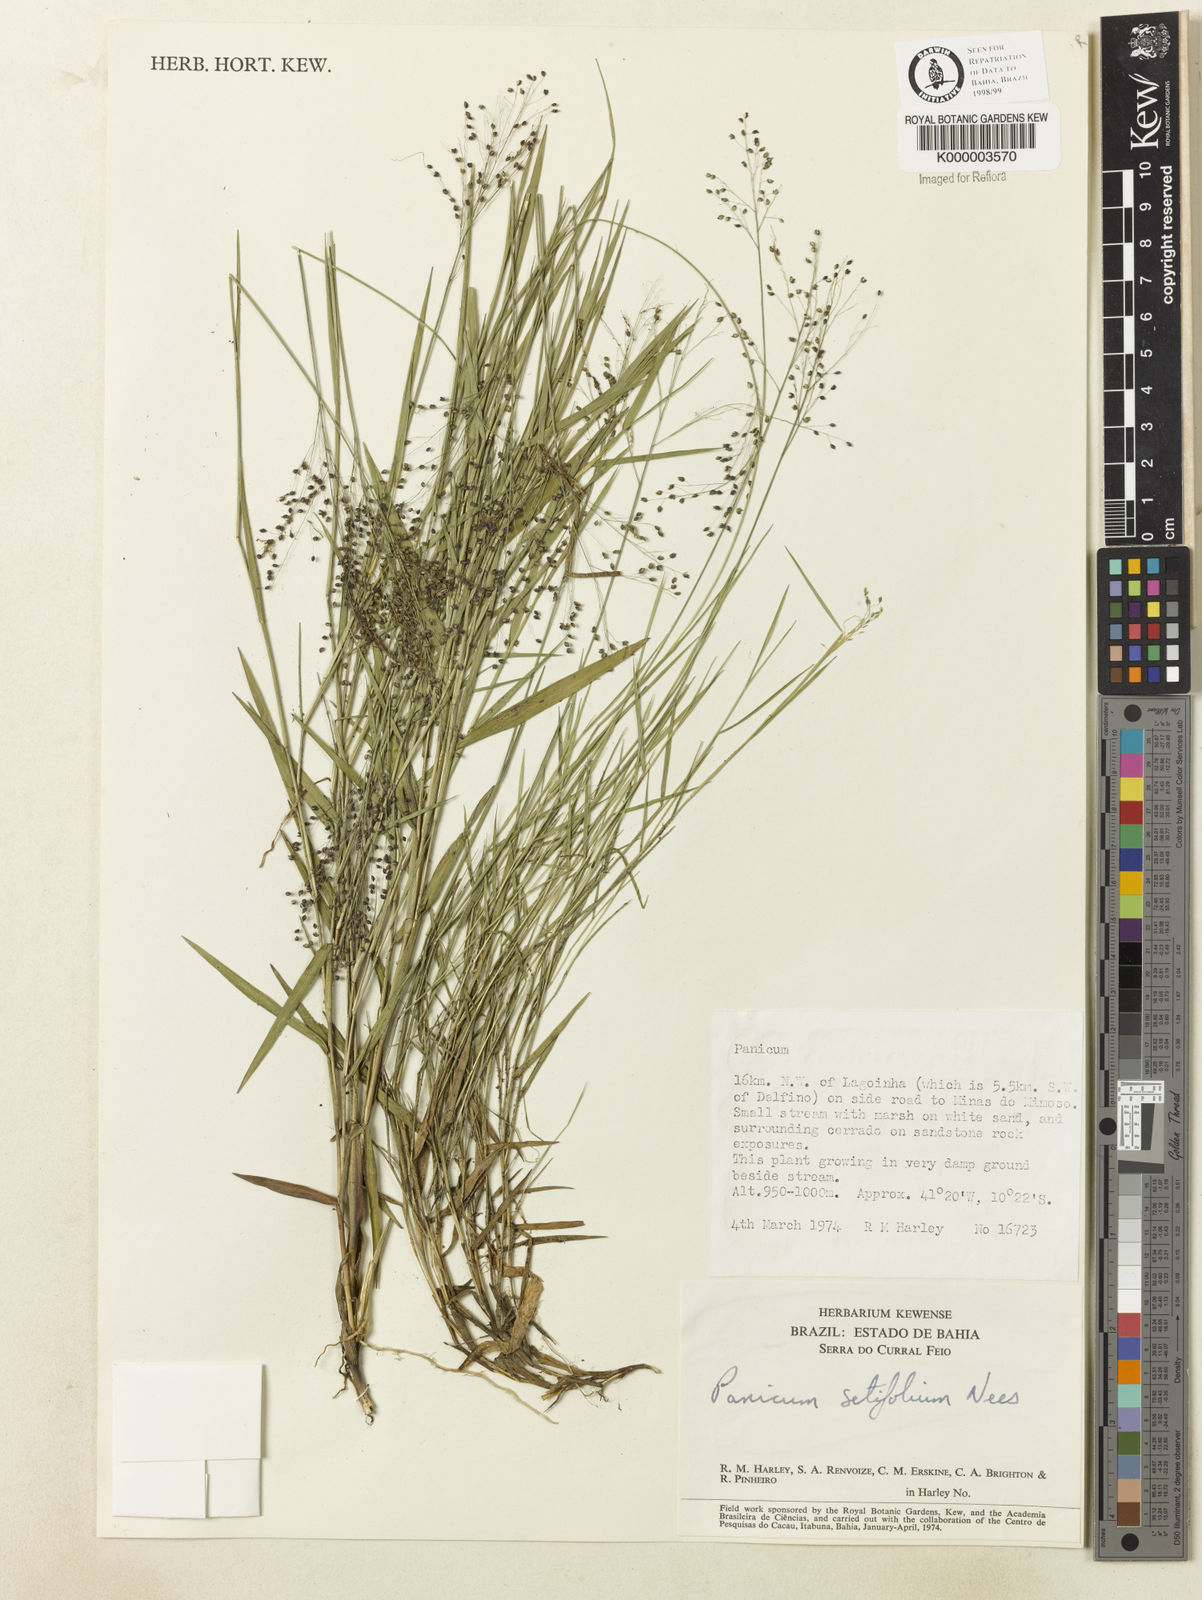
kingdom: Plantae
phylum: Tracheophyta
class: Liliopsida
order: Poales
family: Poaceae
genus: Panicum
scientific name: Panicum rupestre
